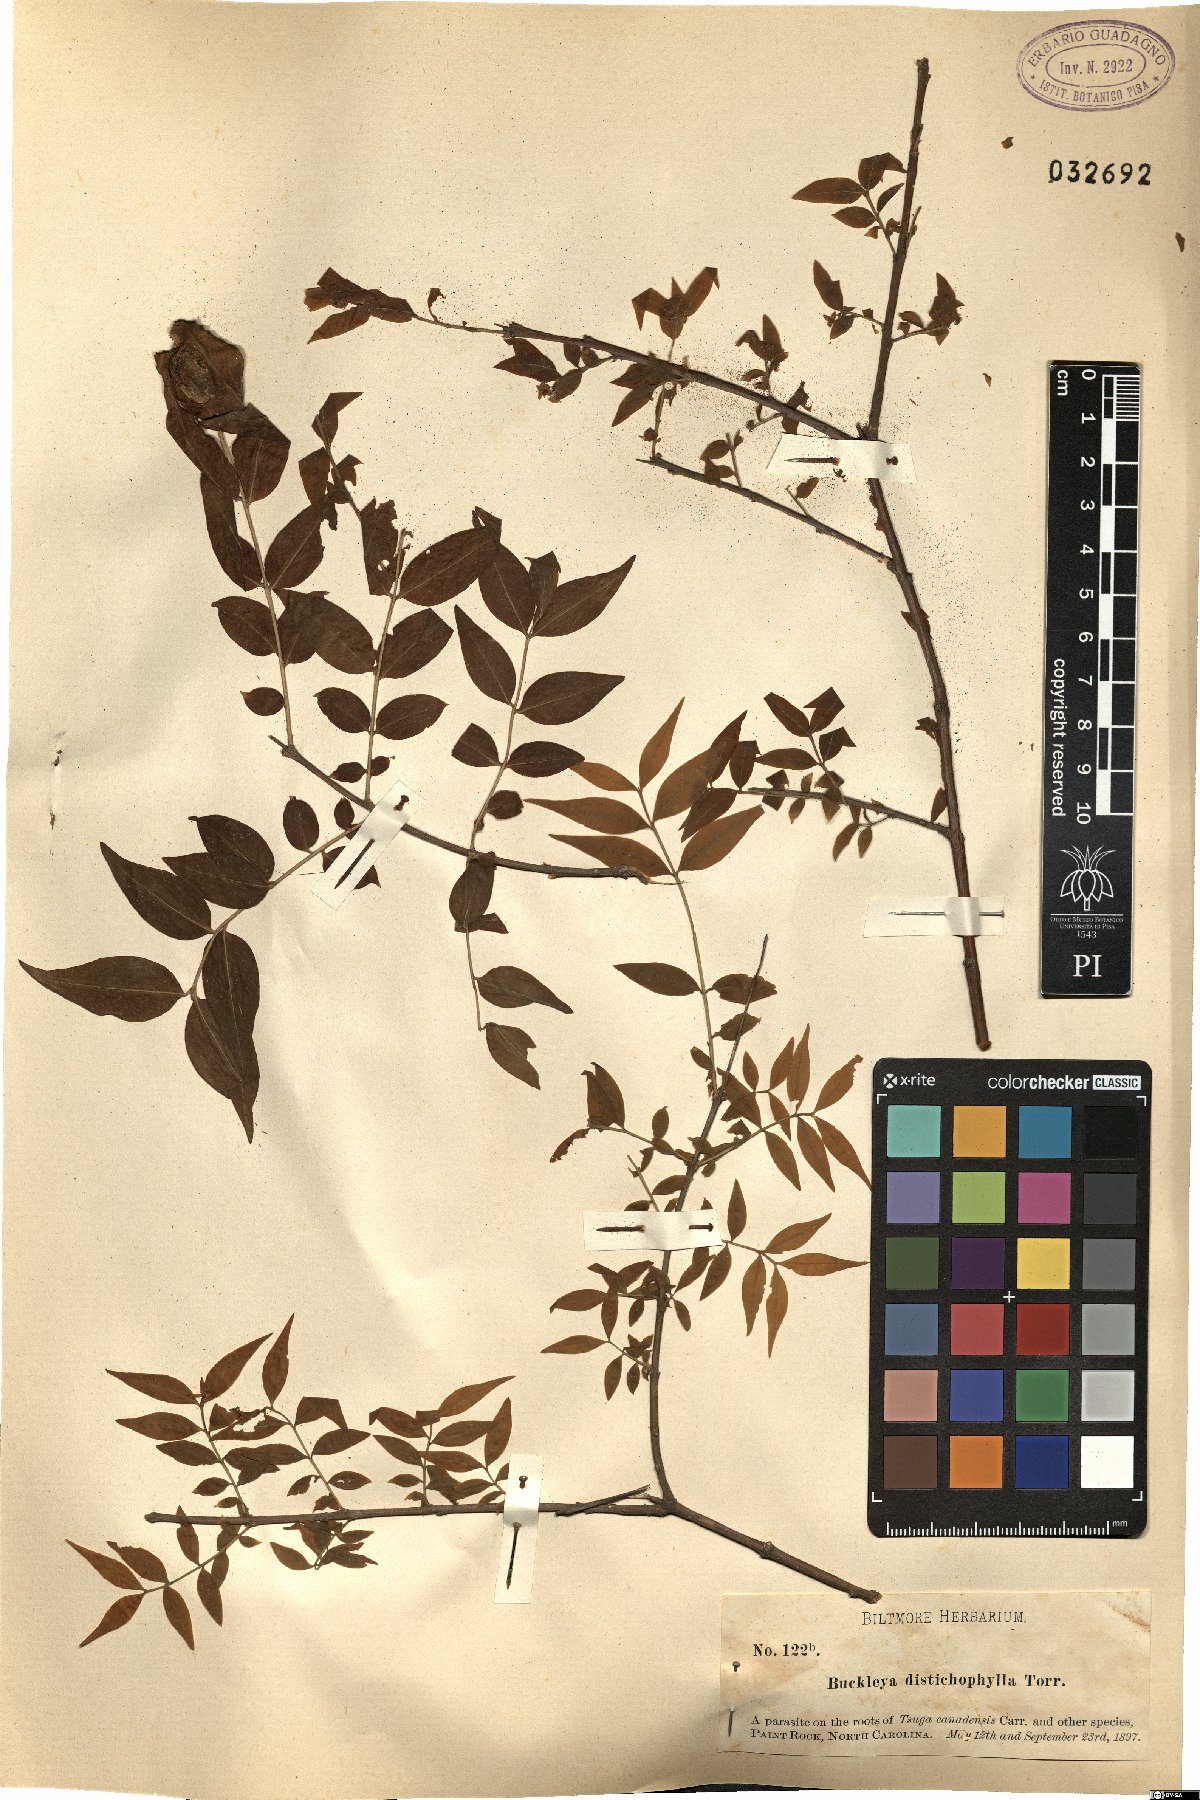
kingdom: Plantae
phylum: Tracheophyta
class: Magnoliopsida
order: Santalales
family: Thesiaceae
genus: Buckleya
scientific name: Buckleya distichophylla
